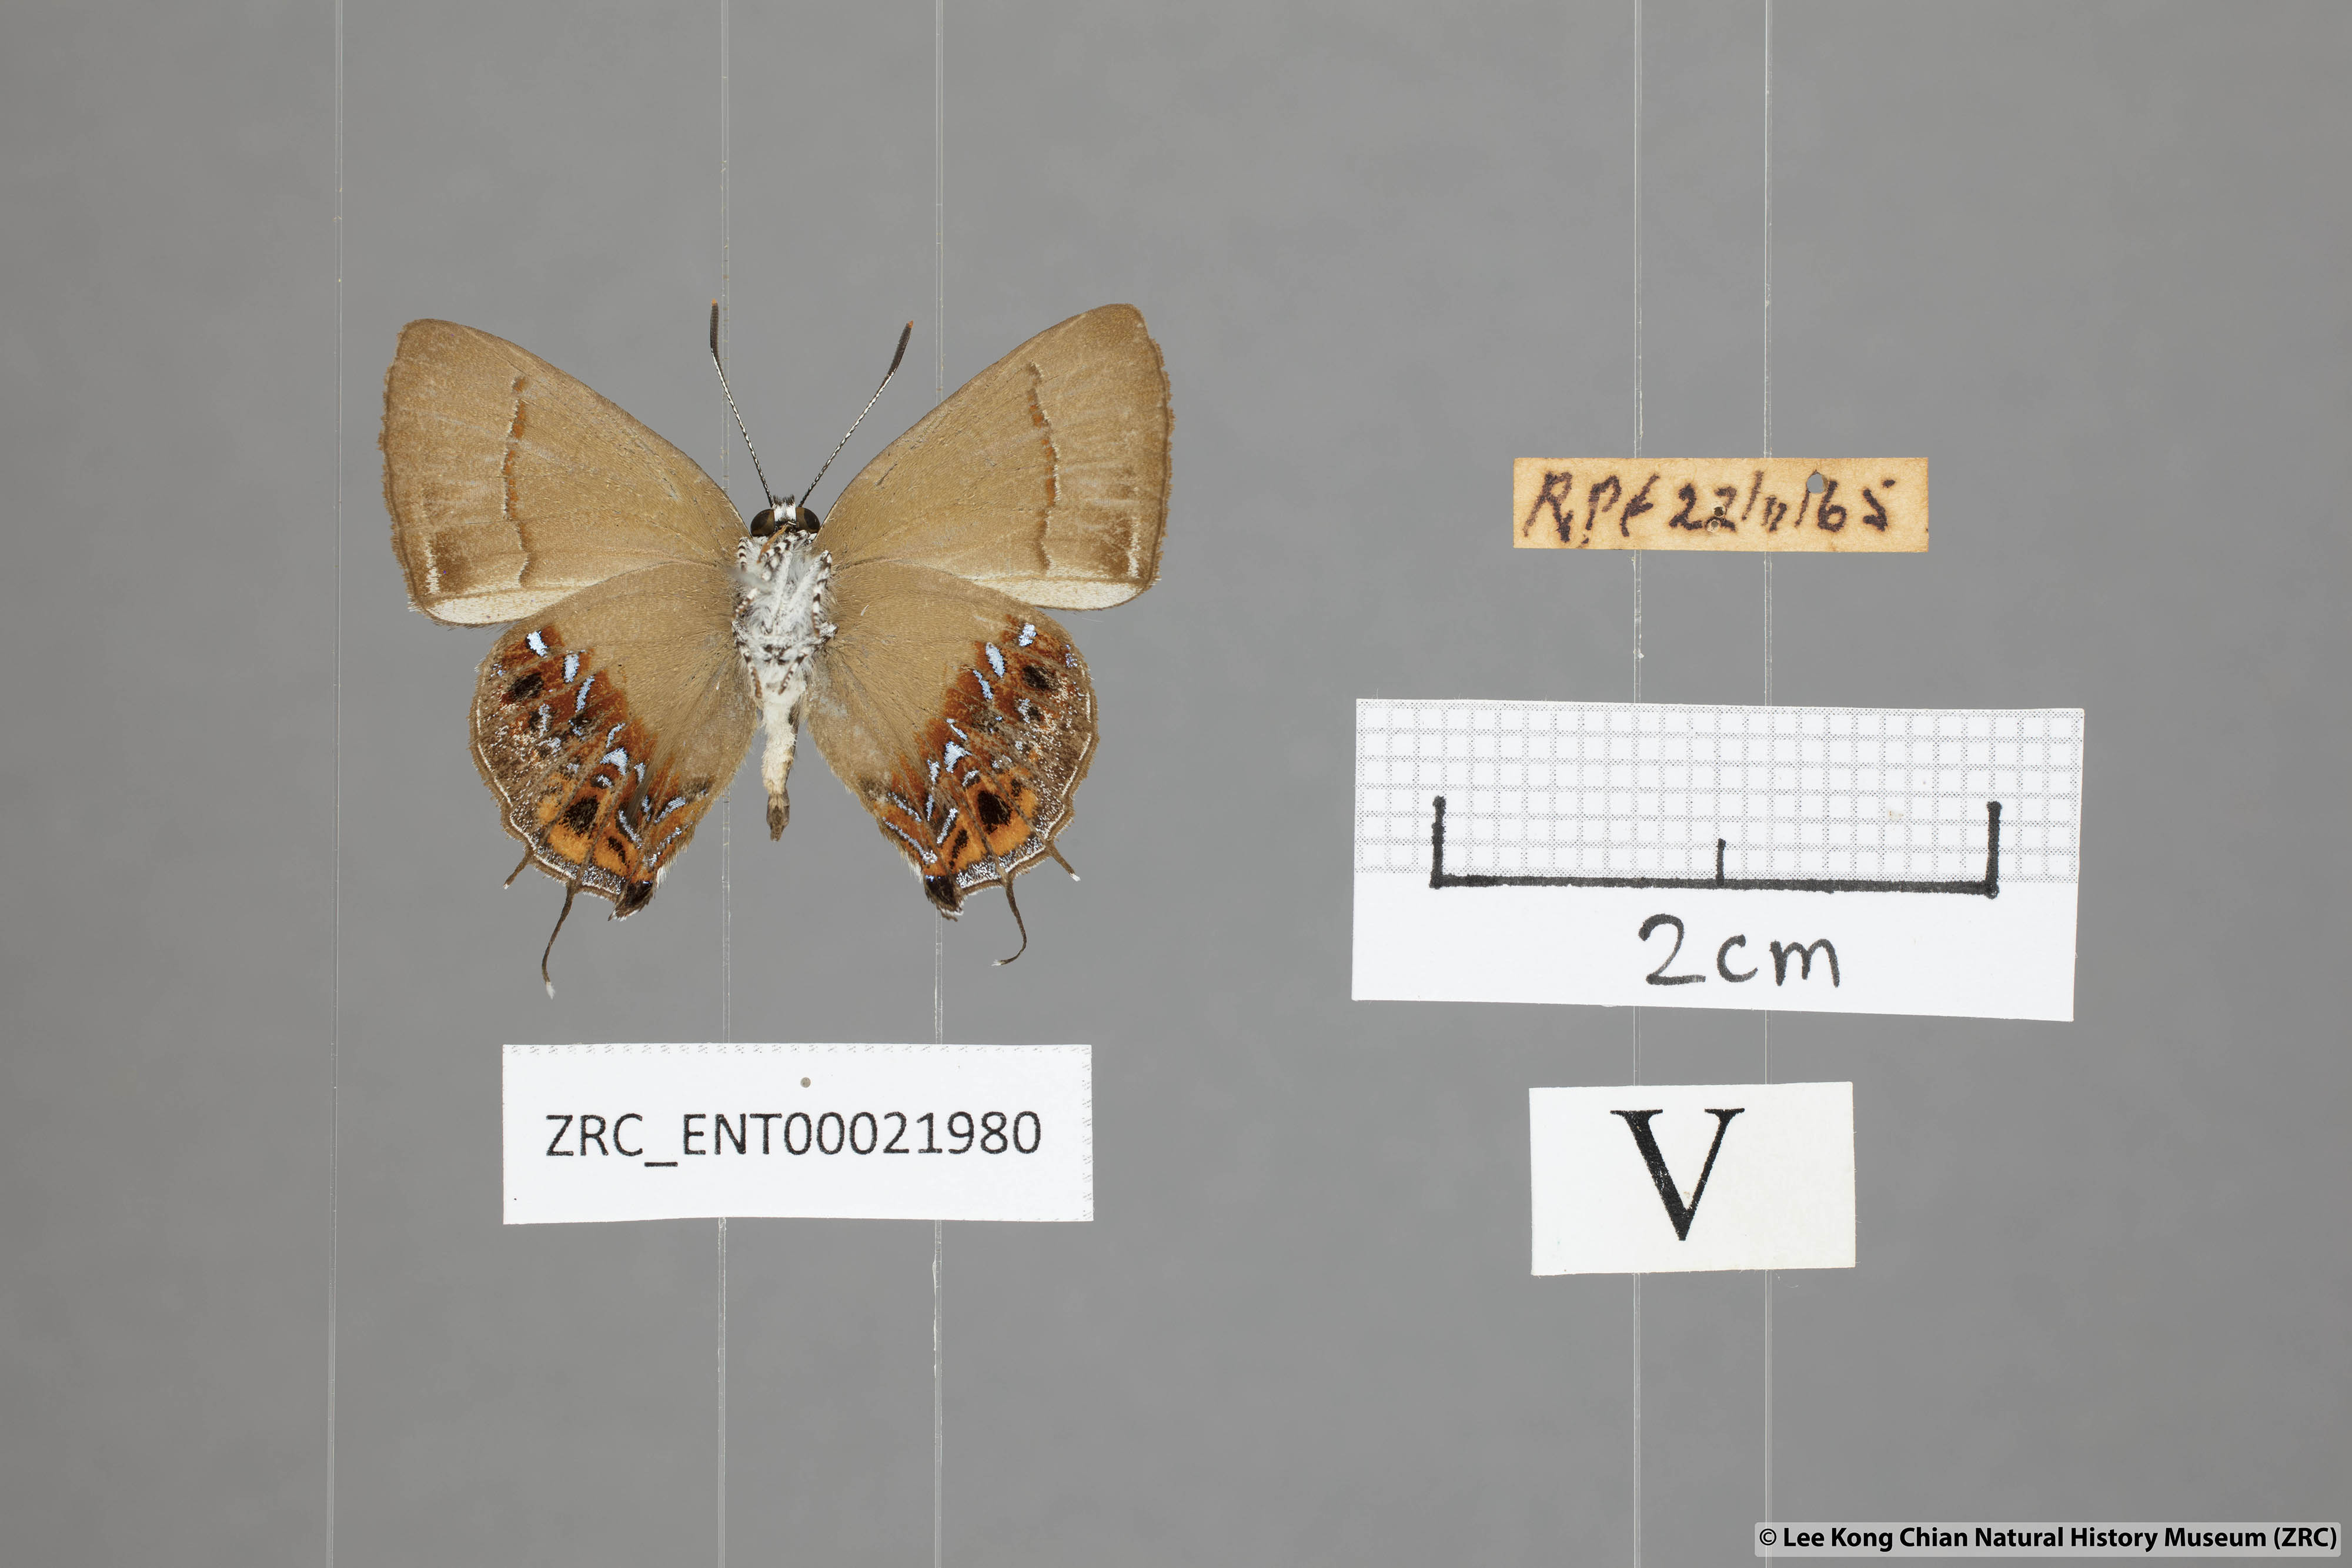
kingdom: Animalia
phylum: Arthropoda
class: Insecta
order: Lepidoptera
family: Lycaenidae
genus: Semanga
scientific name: Semanga superba
